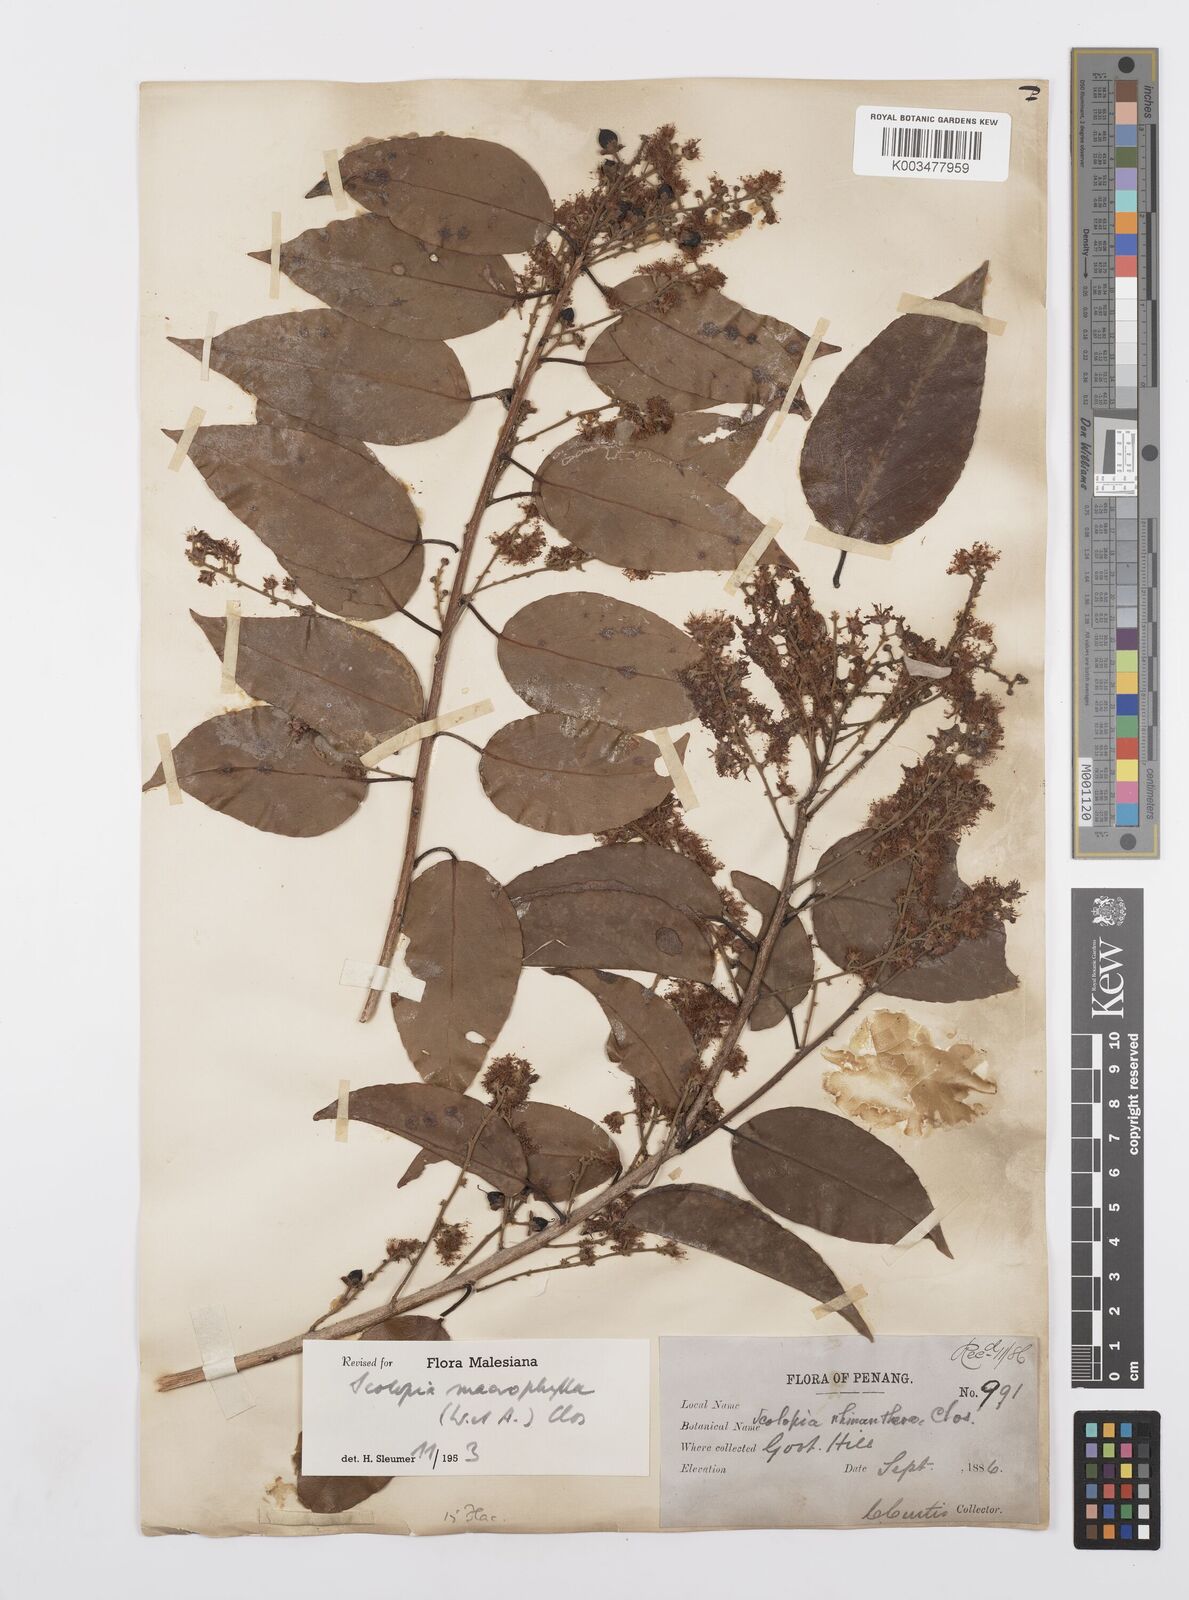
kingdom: Plantae
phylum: Tracheophyta
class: Magnoliopsida
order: Malpighiales
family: Salicaceae
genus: Scolopia
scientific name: Scolopia macrophylla
